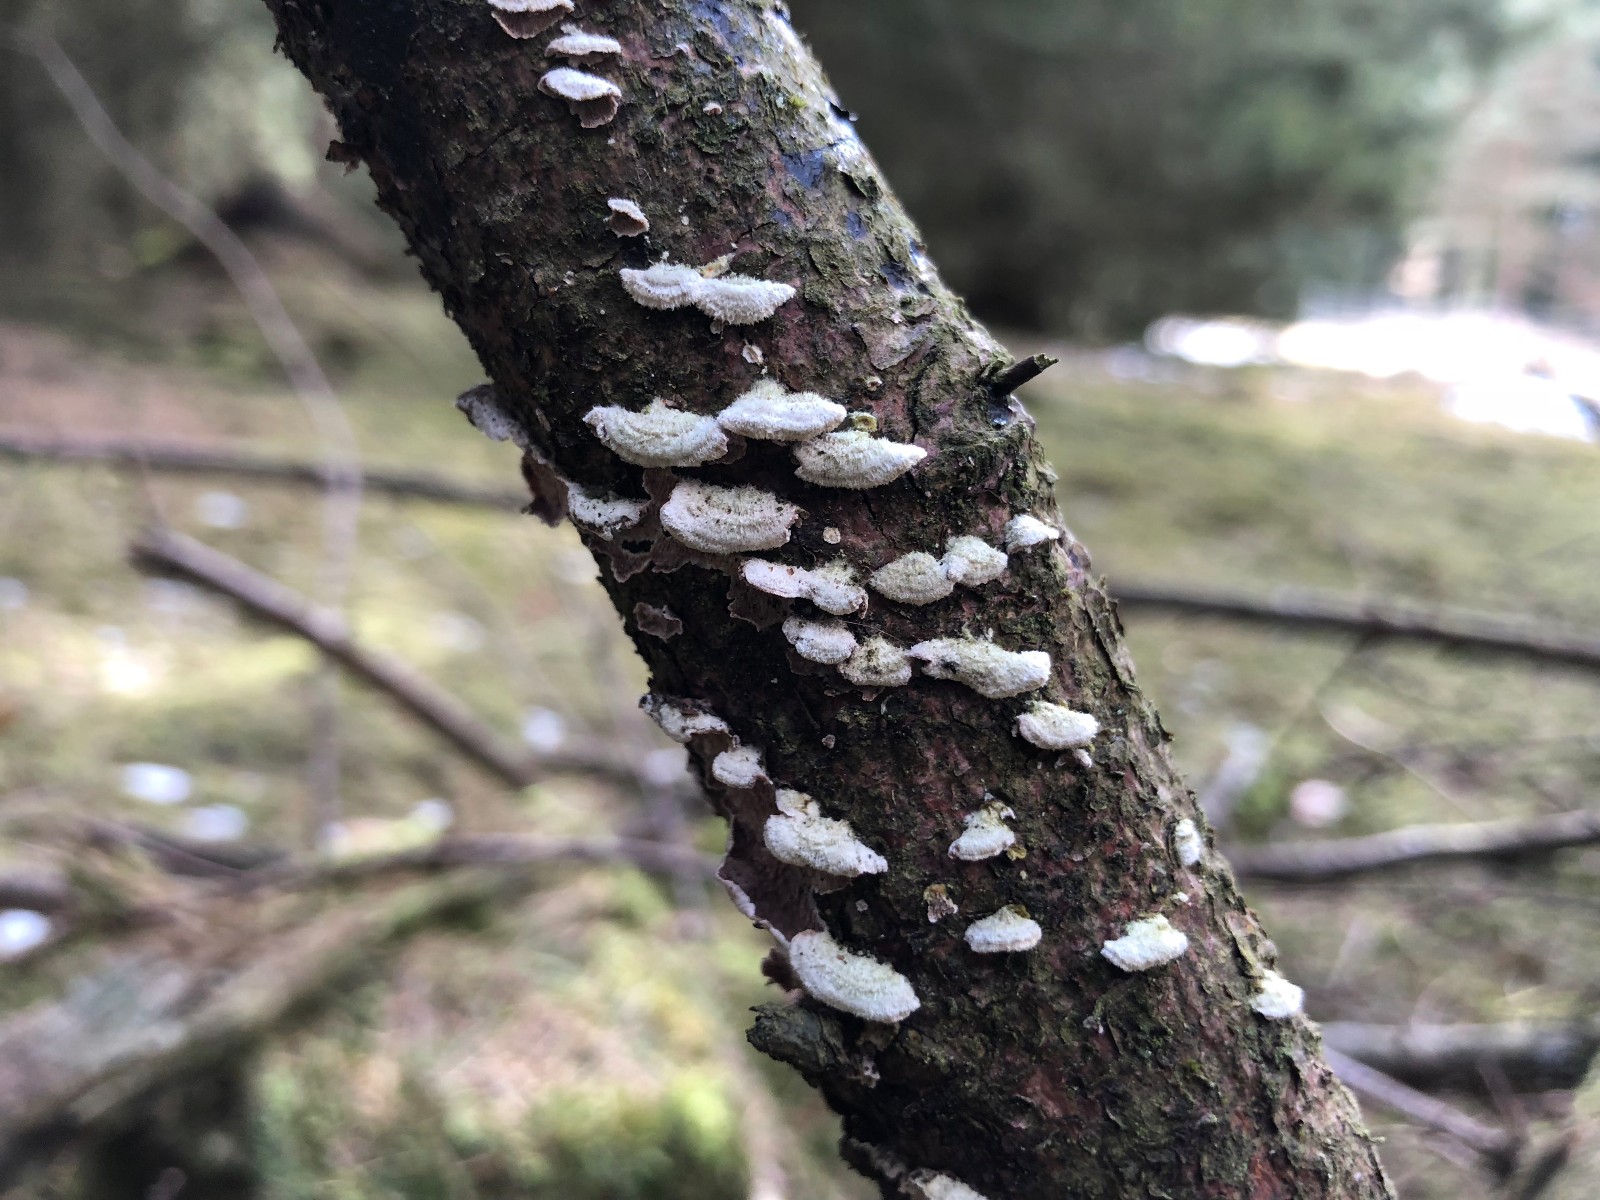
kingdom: Fungi
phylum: Basidiomycota
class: Agaricomycetes
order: Polyporales
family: Polyporaceae
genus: Trichaptum
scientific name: Trichaptum
